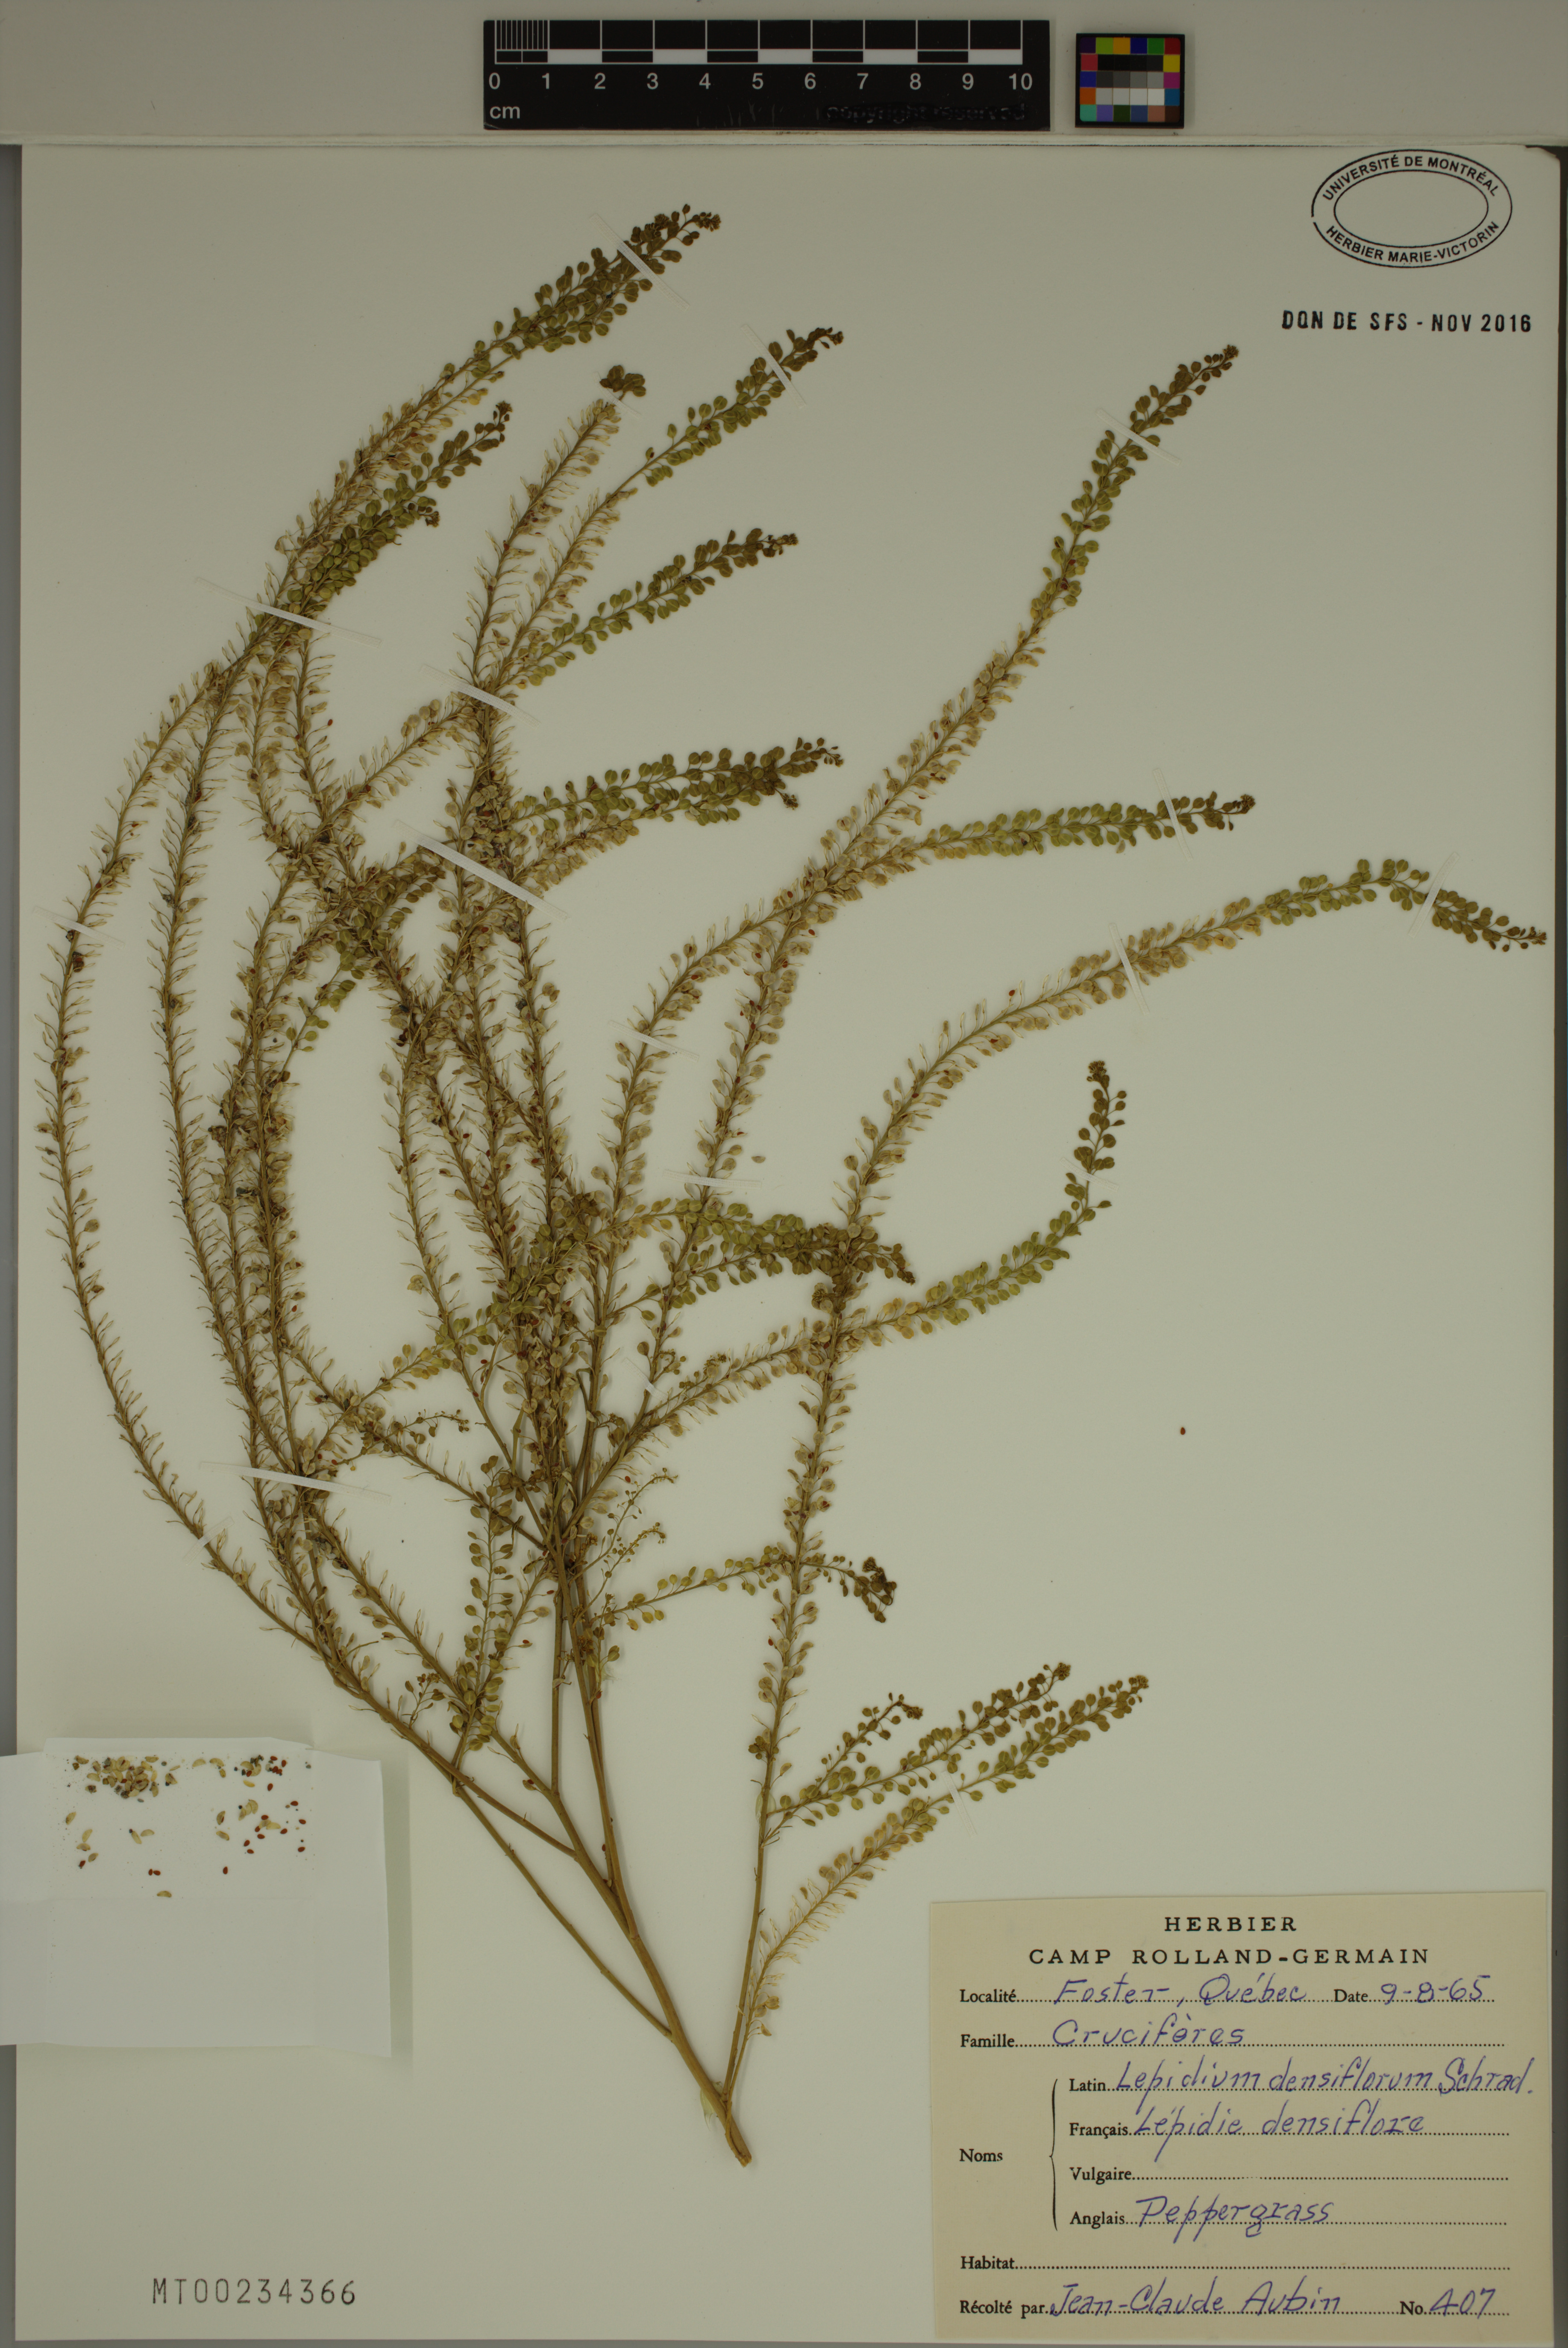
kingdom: Plantae
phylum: Tracheophyta
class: Magnoliopsida
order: Brassicales
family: Brassicaceae
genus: Lepidium
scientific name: Lepidium densiflorum
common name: Miner's pepperwort
